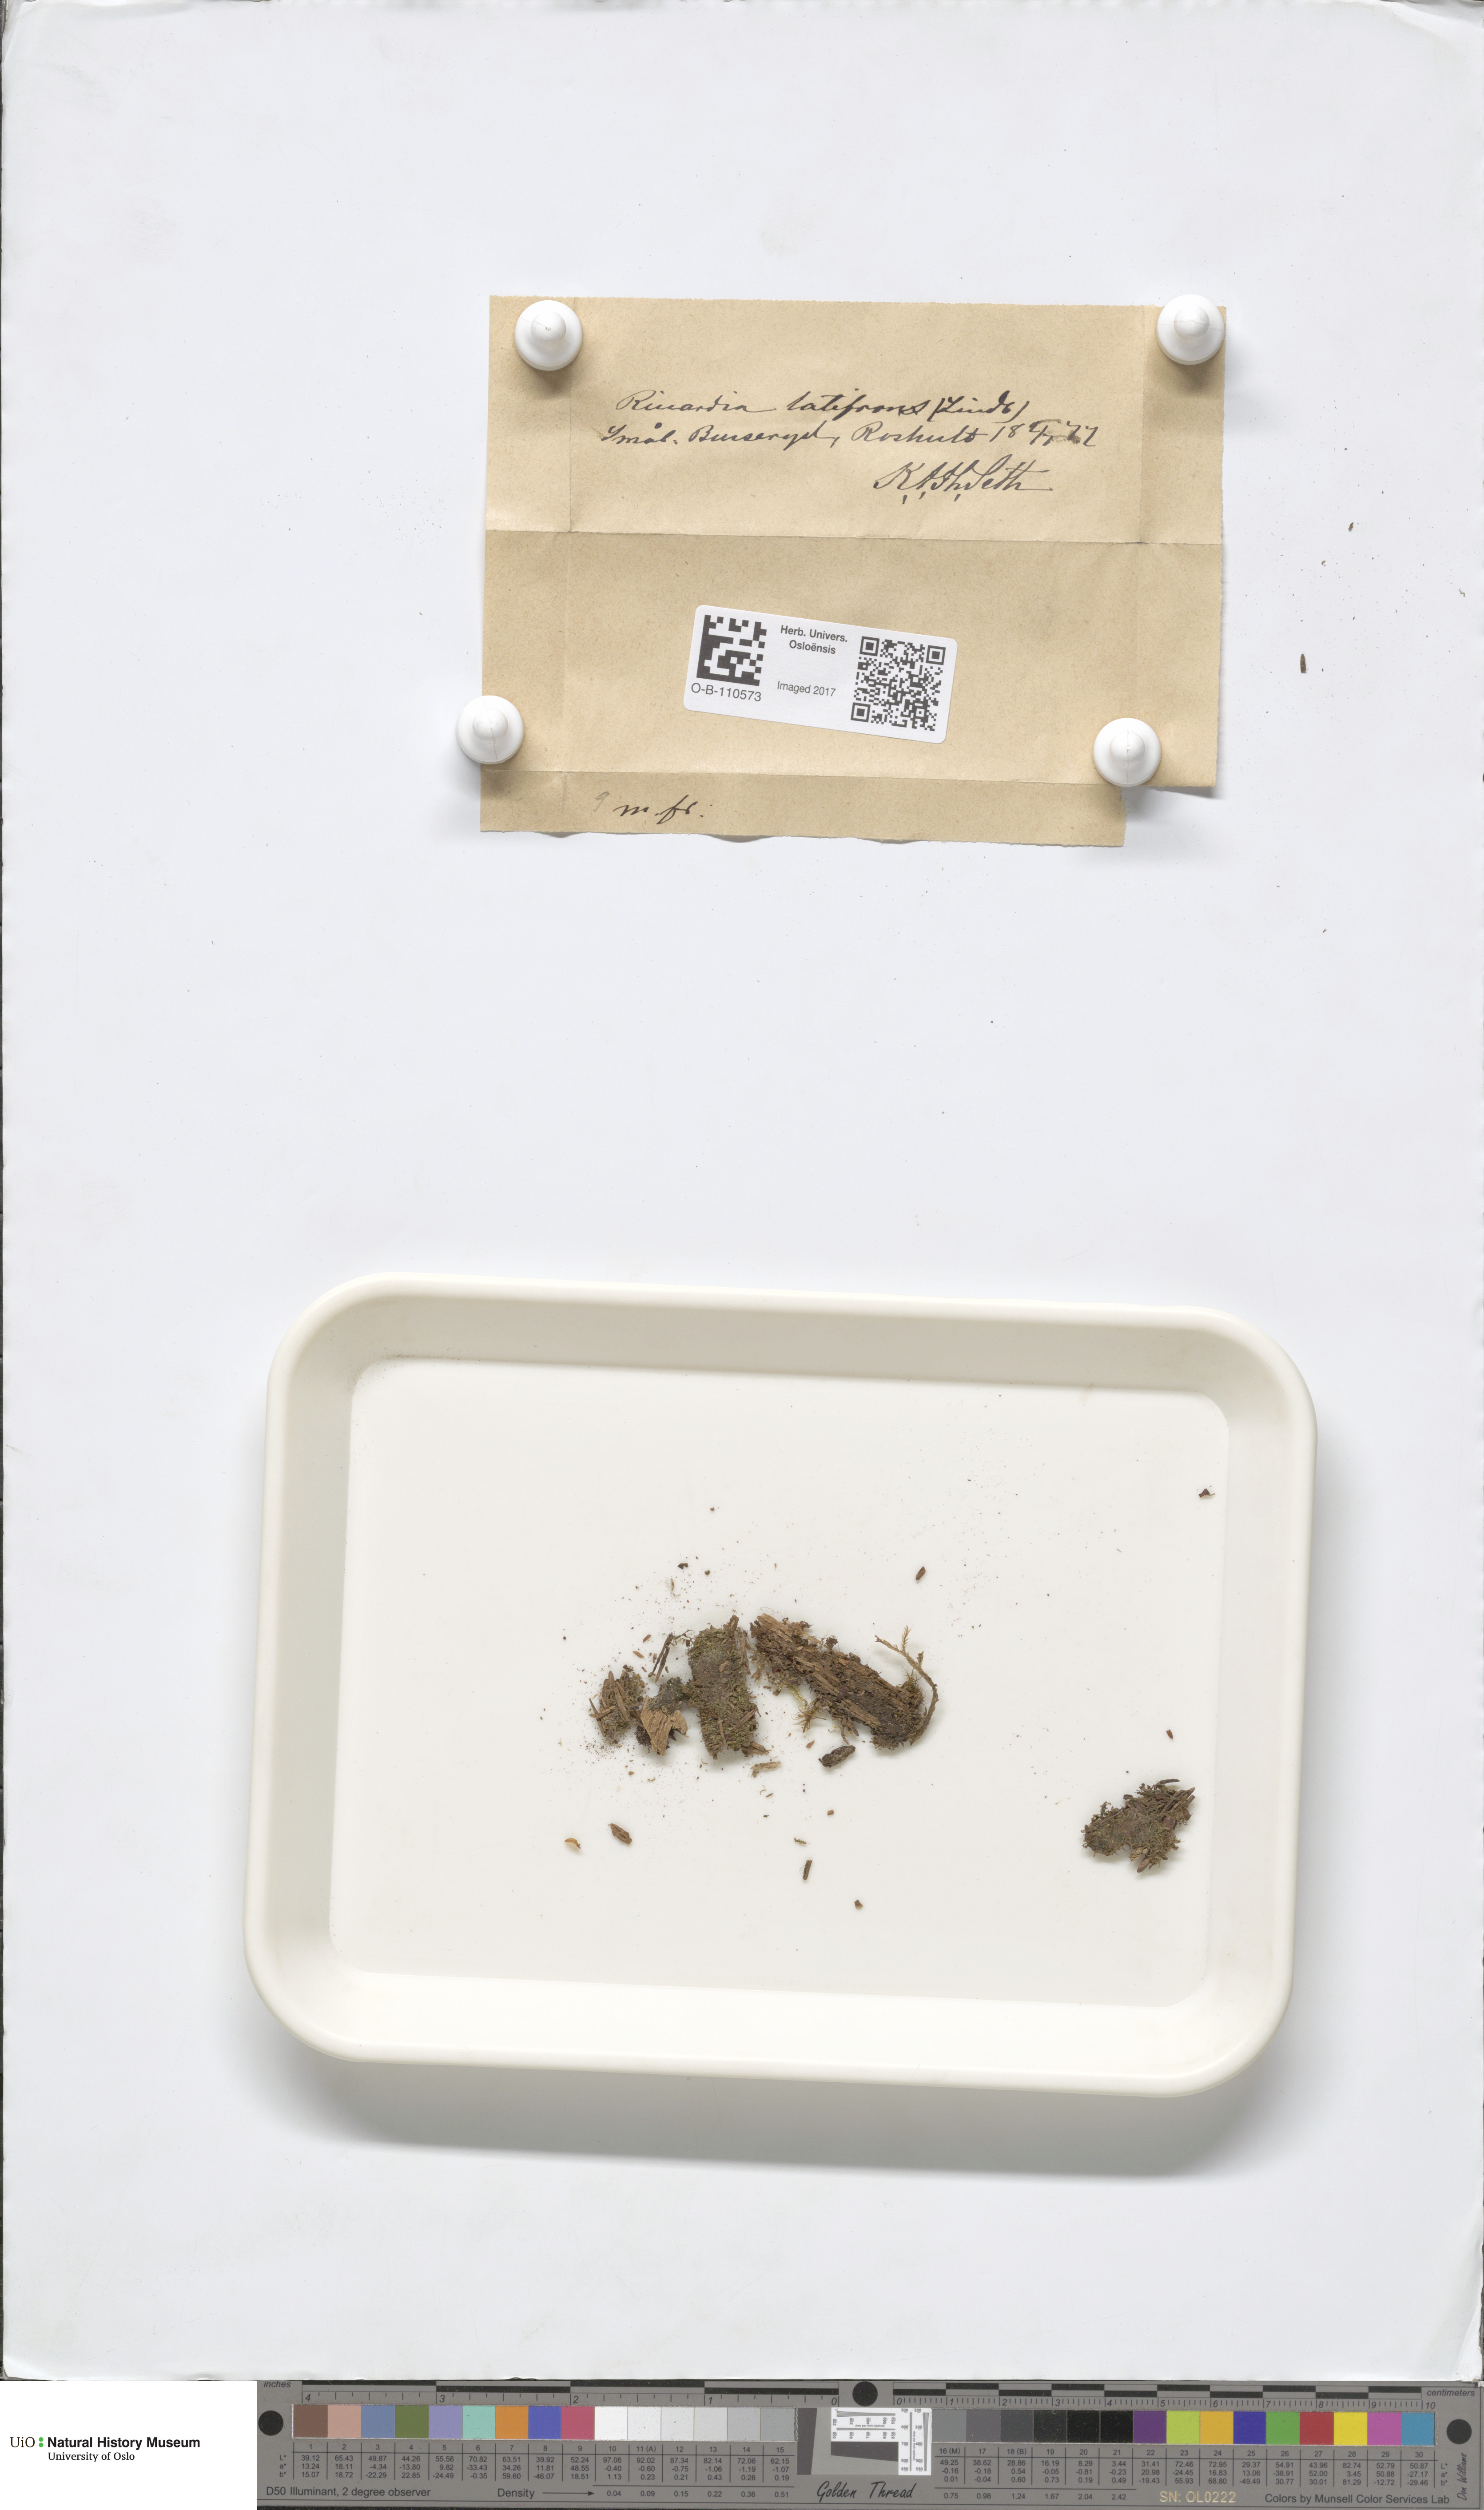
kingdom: Plantae
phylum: Marchantiophyta
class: Jungermanniopsida
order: Metzgeriales
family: Aneuraceae
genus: Riccardia
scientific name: Riccardia latifrons
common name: Bog germanderwort
